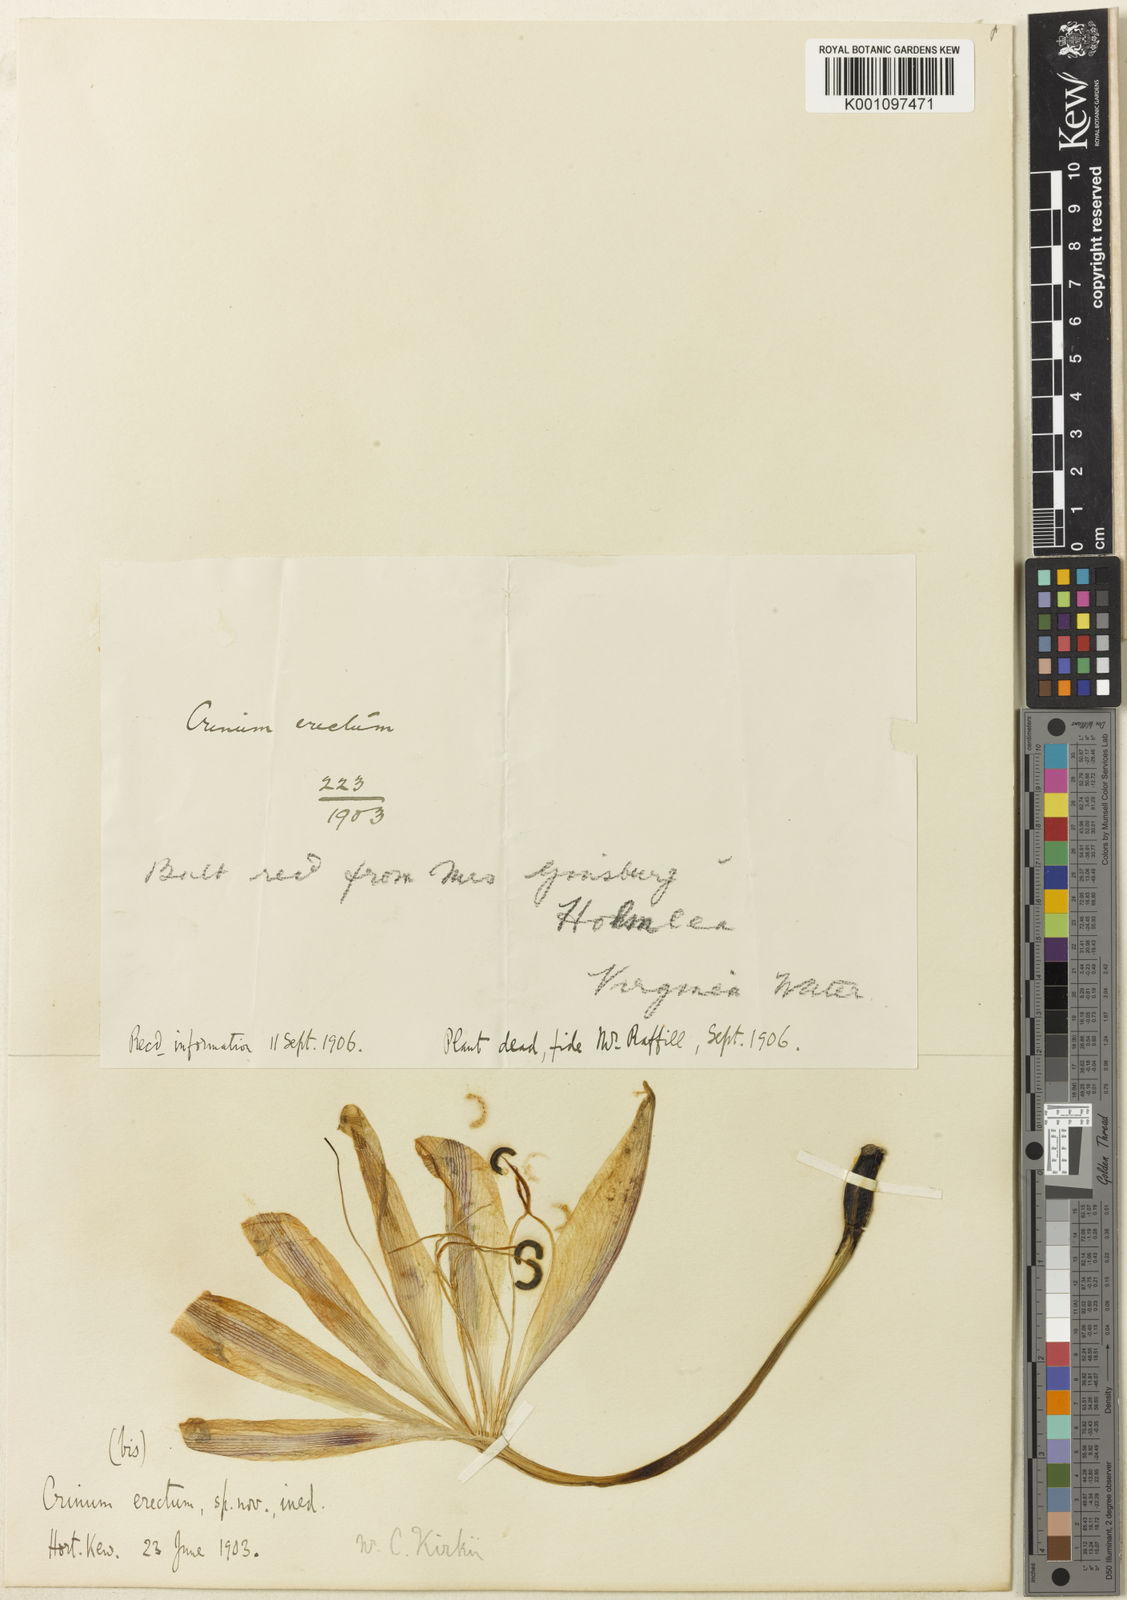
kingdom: Plantae
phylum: Tracheophyta
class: Liliopsida
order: Asparagales
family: Amaryllidaceae
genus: Crinum
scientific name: Crinum
